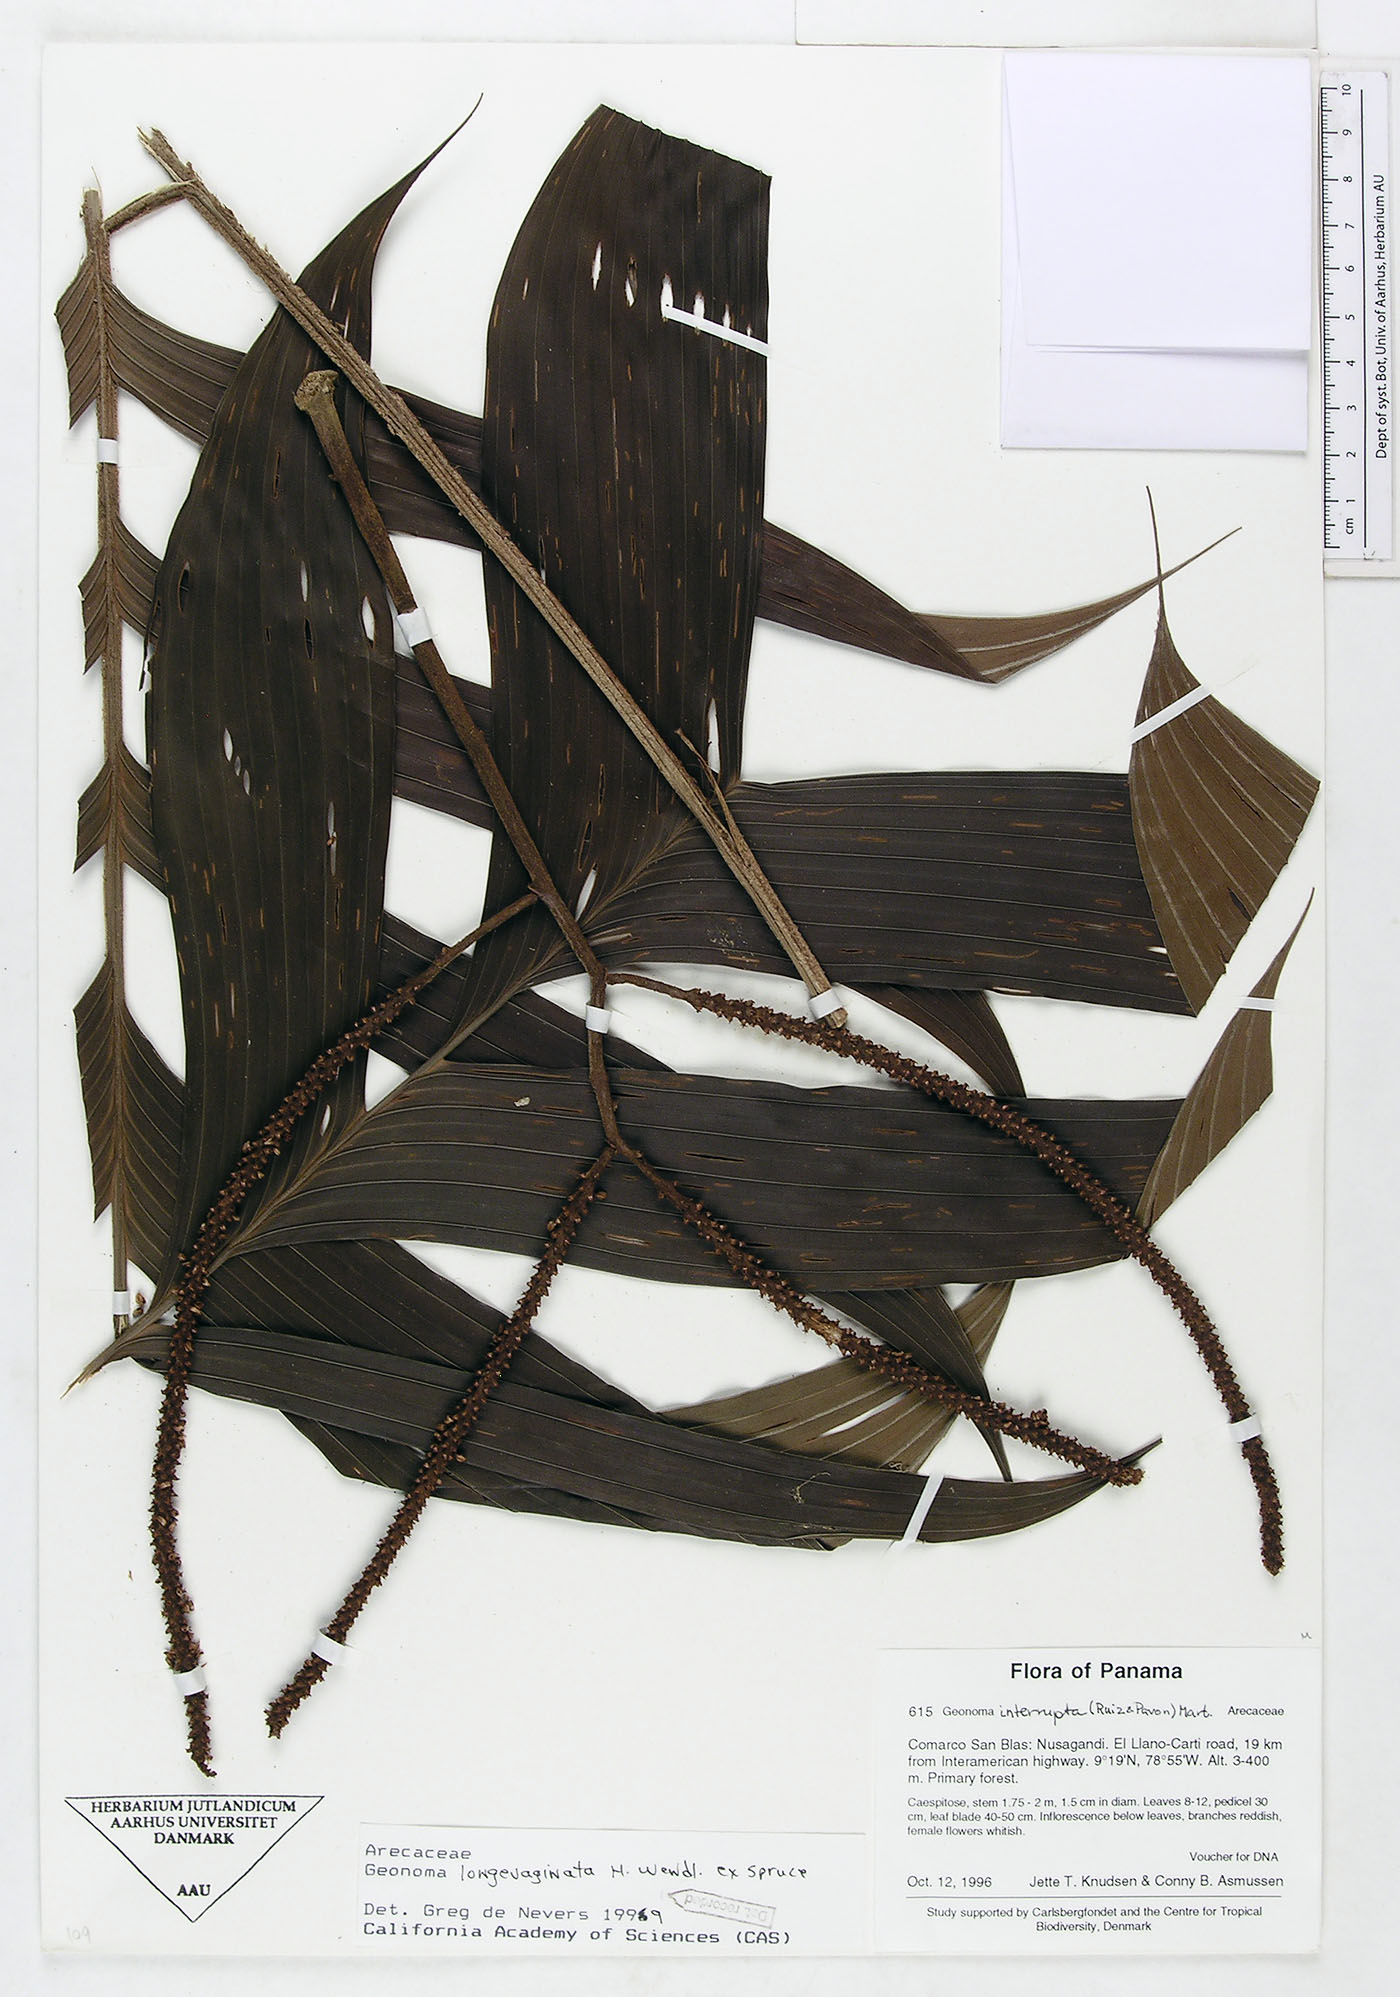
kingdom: Plantae
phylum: Tracheophyta
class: Liliopsida
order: Arecales
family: Arecaceae
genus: Geonoma
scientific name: Geonoma longivaginata
